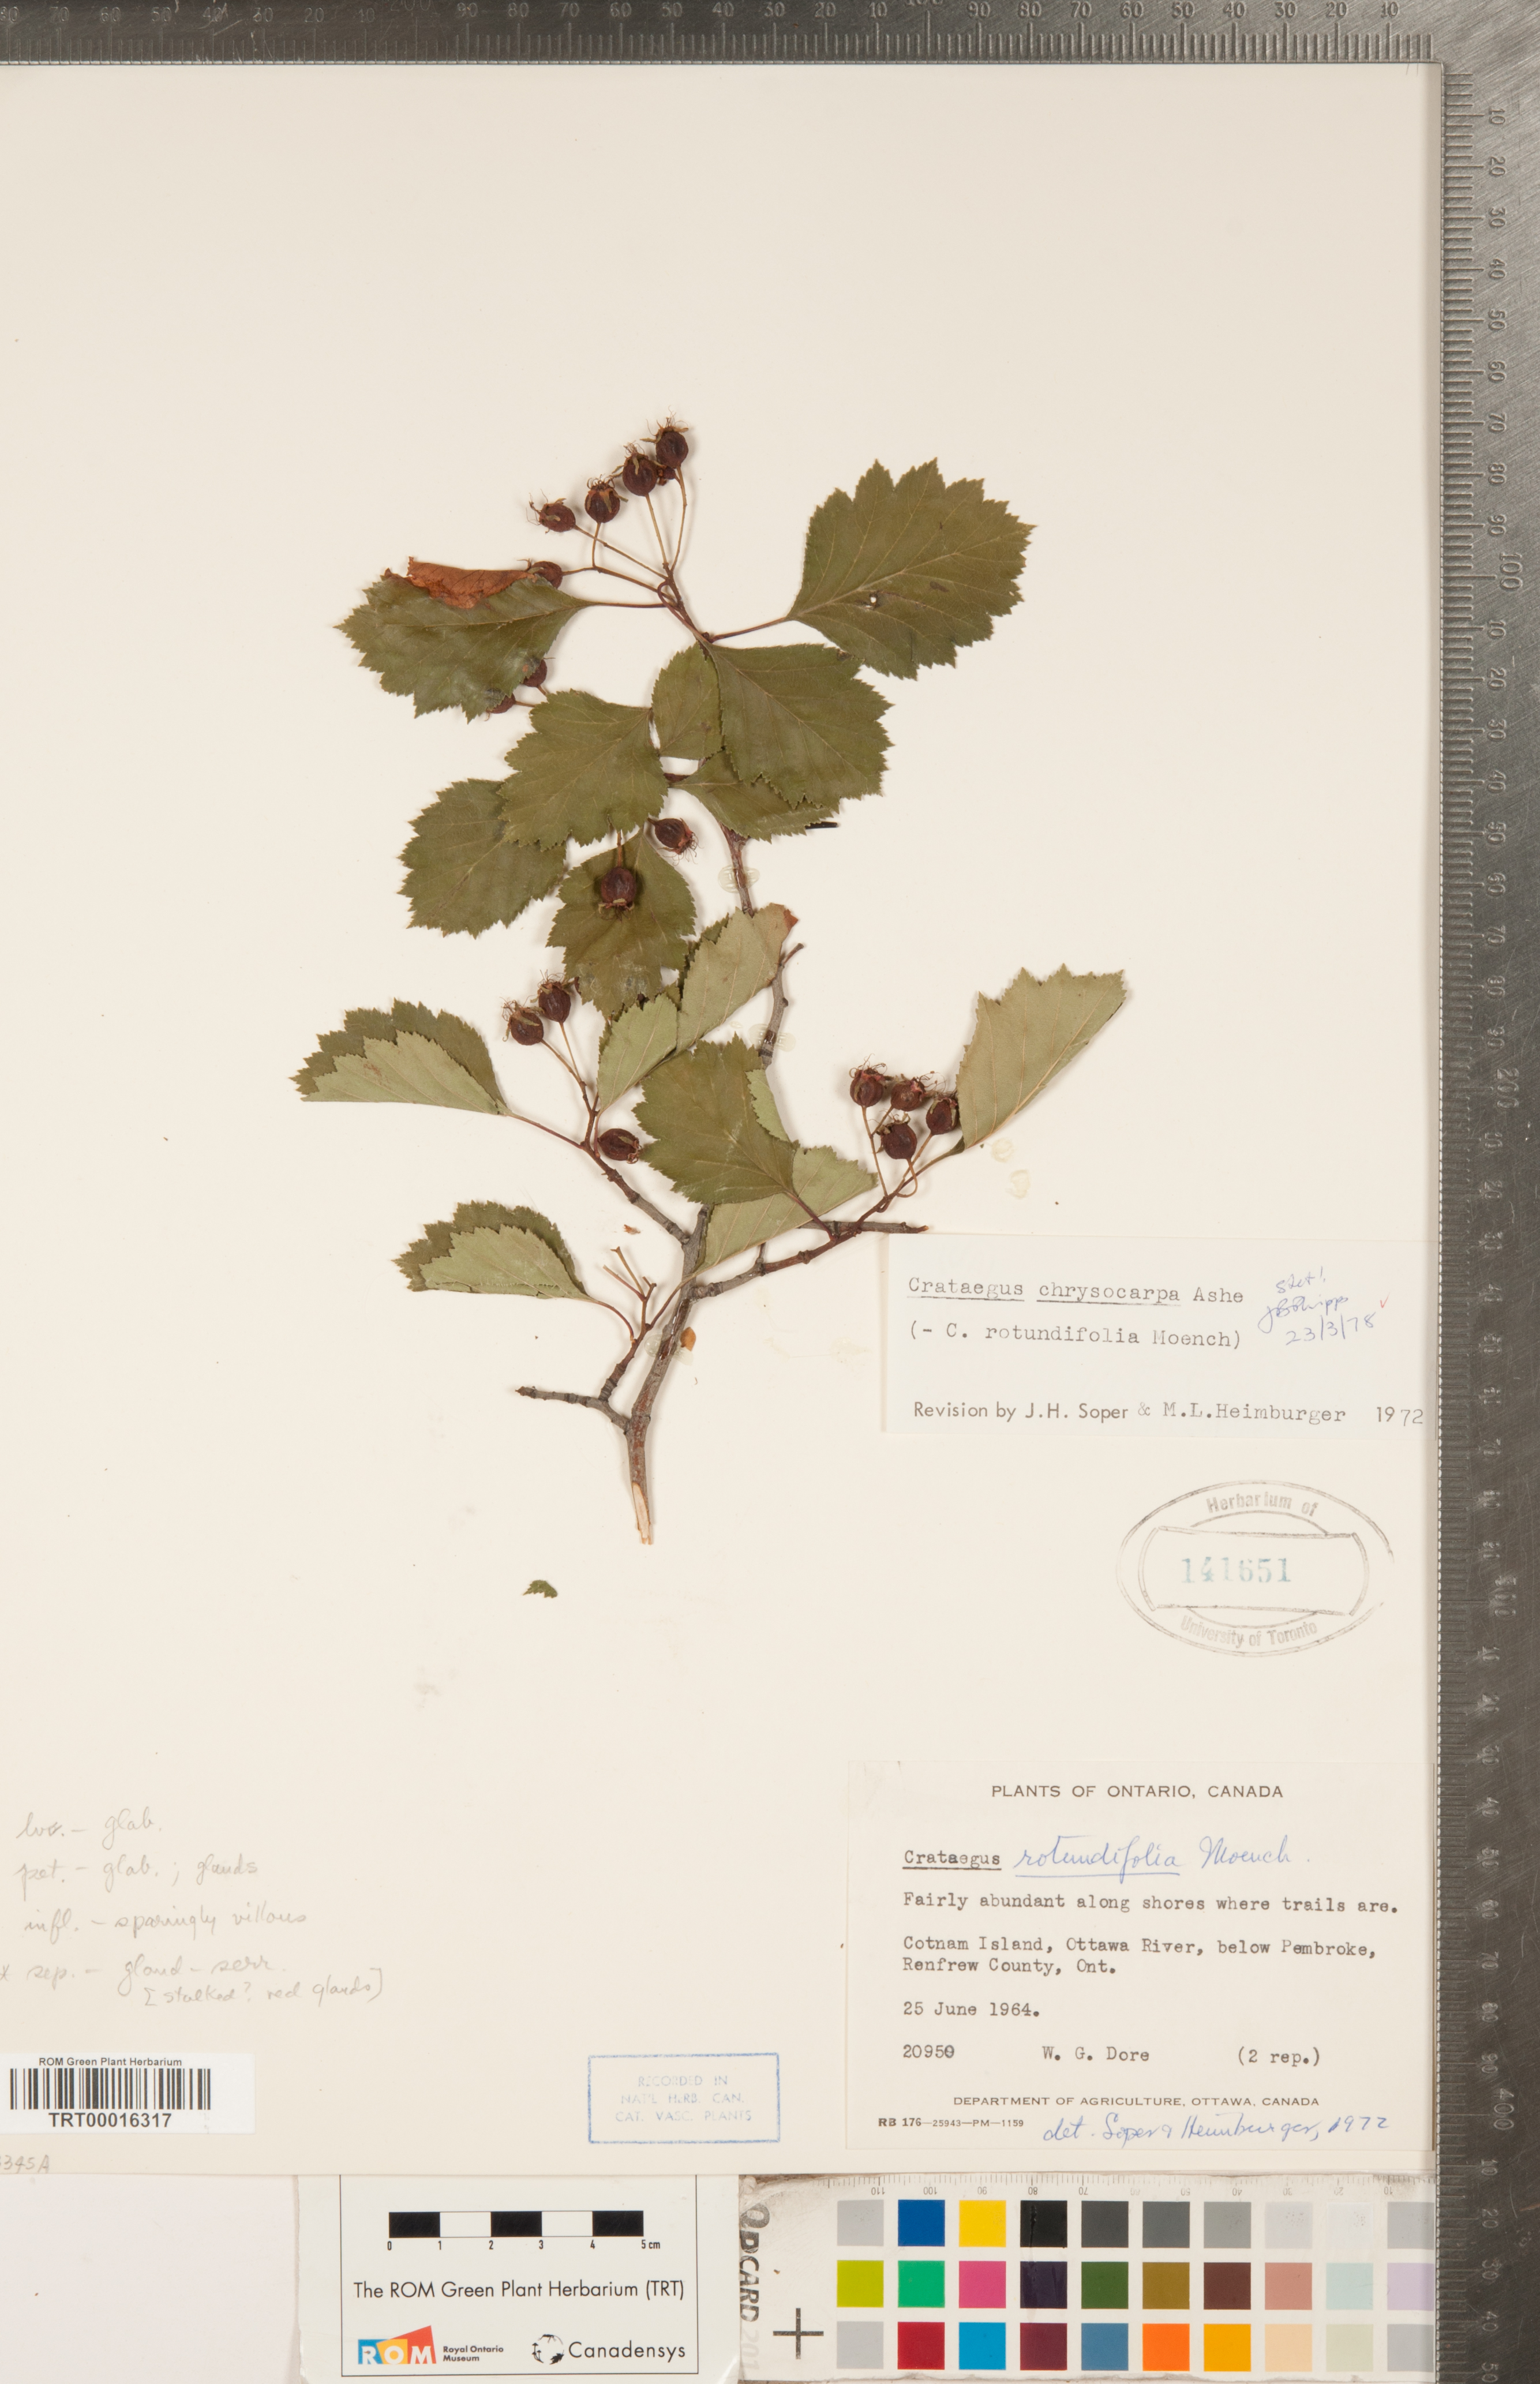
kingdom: Plantae
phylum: Tracheophyta
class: Magnoliopsida
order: Rosales
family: Rosaceae
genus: Crataegus
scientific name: Crataegus chrysocarpa
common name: Fire-berry hawthorn
